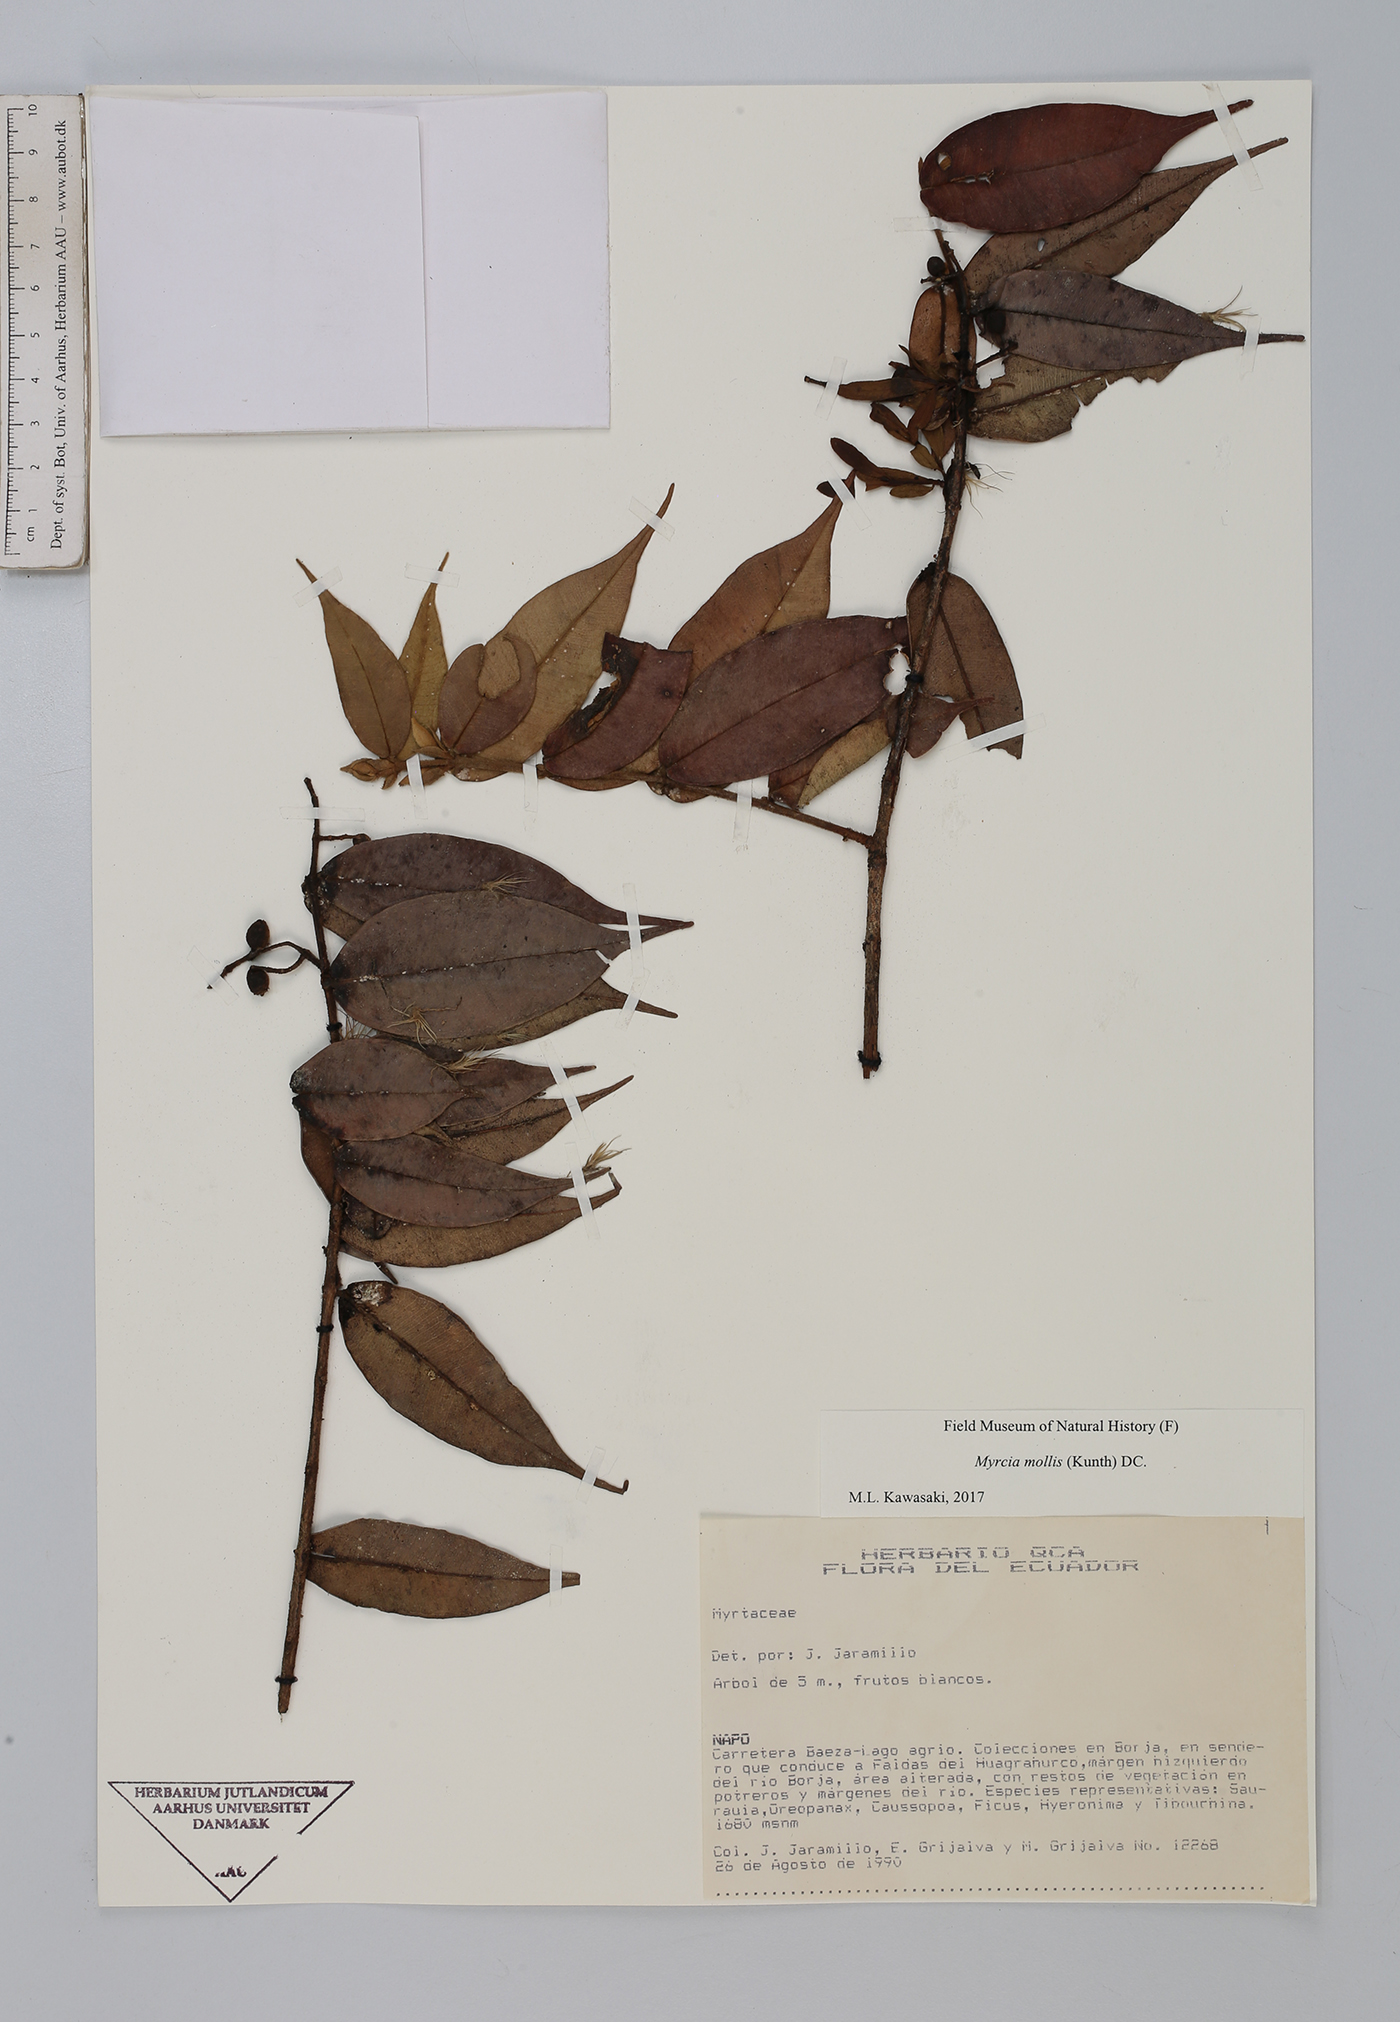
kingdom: Plantae
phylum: Tracheophyta
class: Magnoliopsida
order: Myrtales
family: Myrtaceae
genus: Myrcia
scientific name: Myrcia mollis
